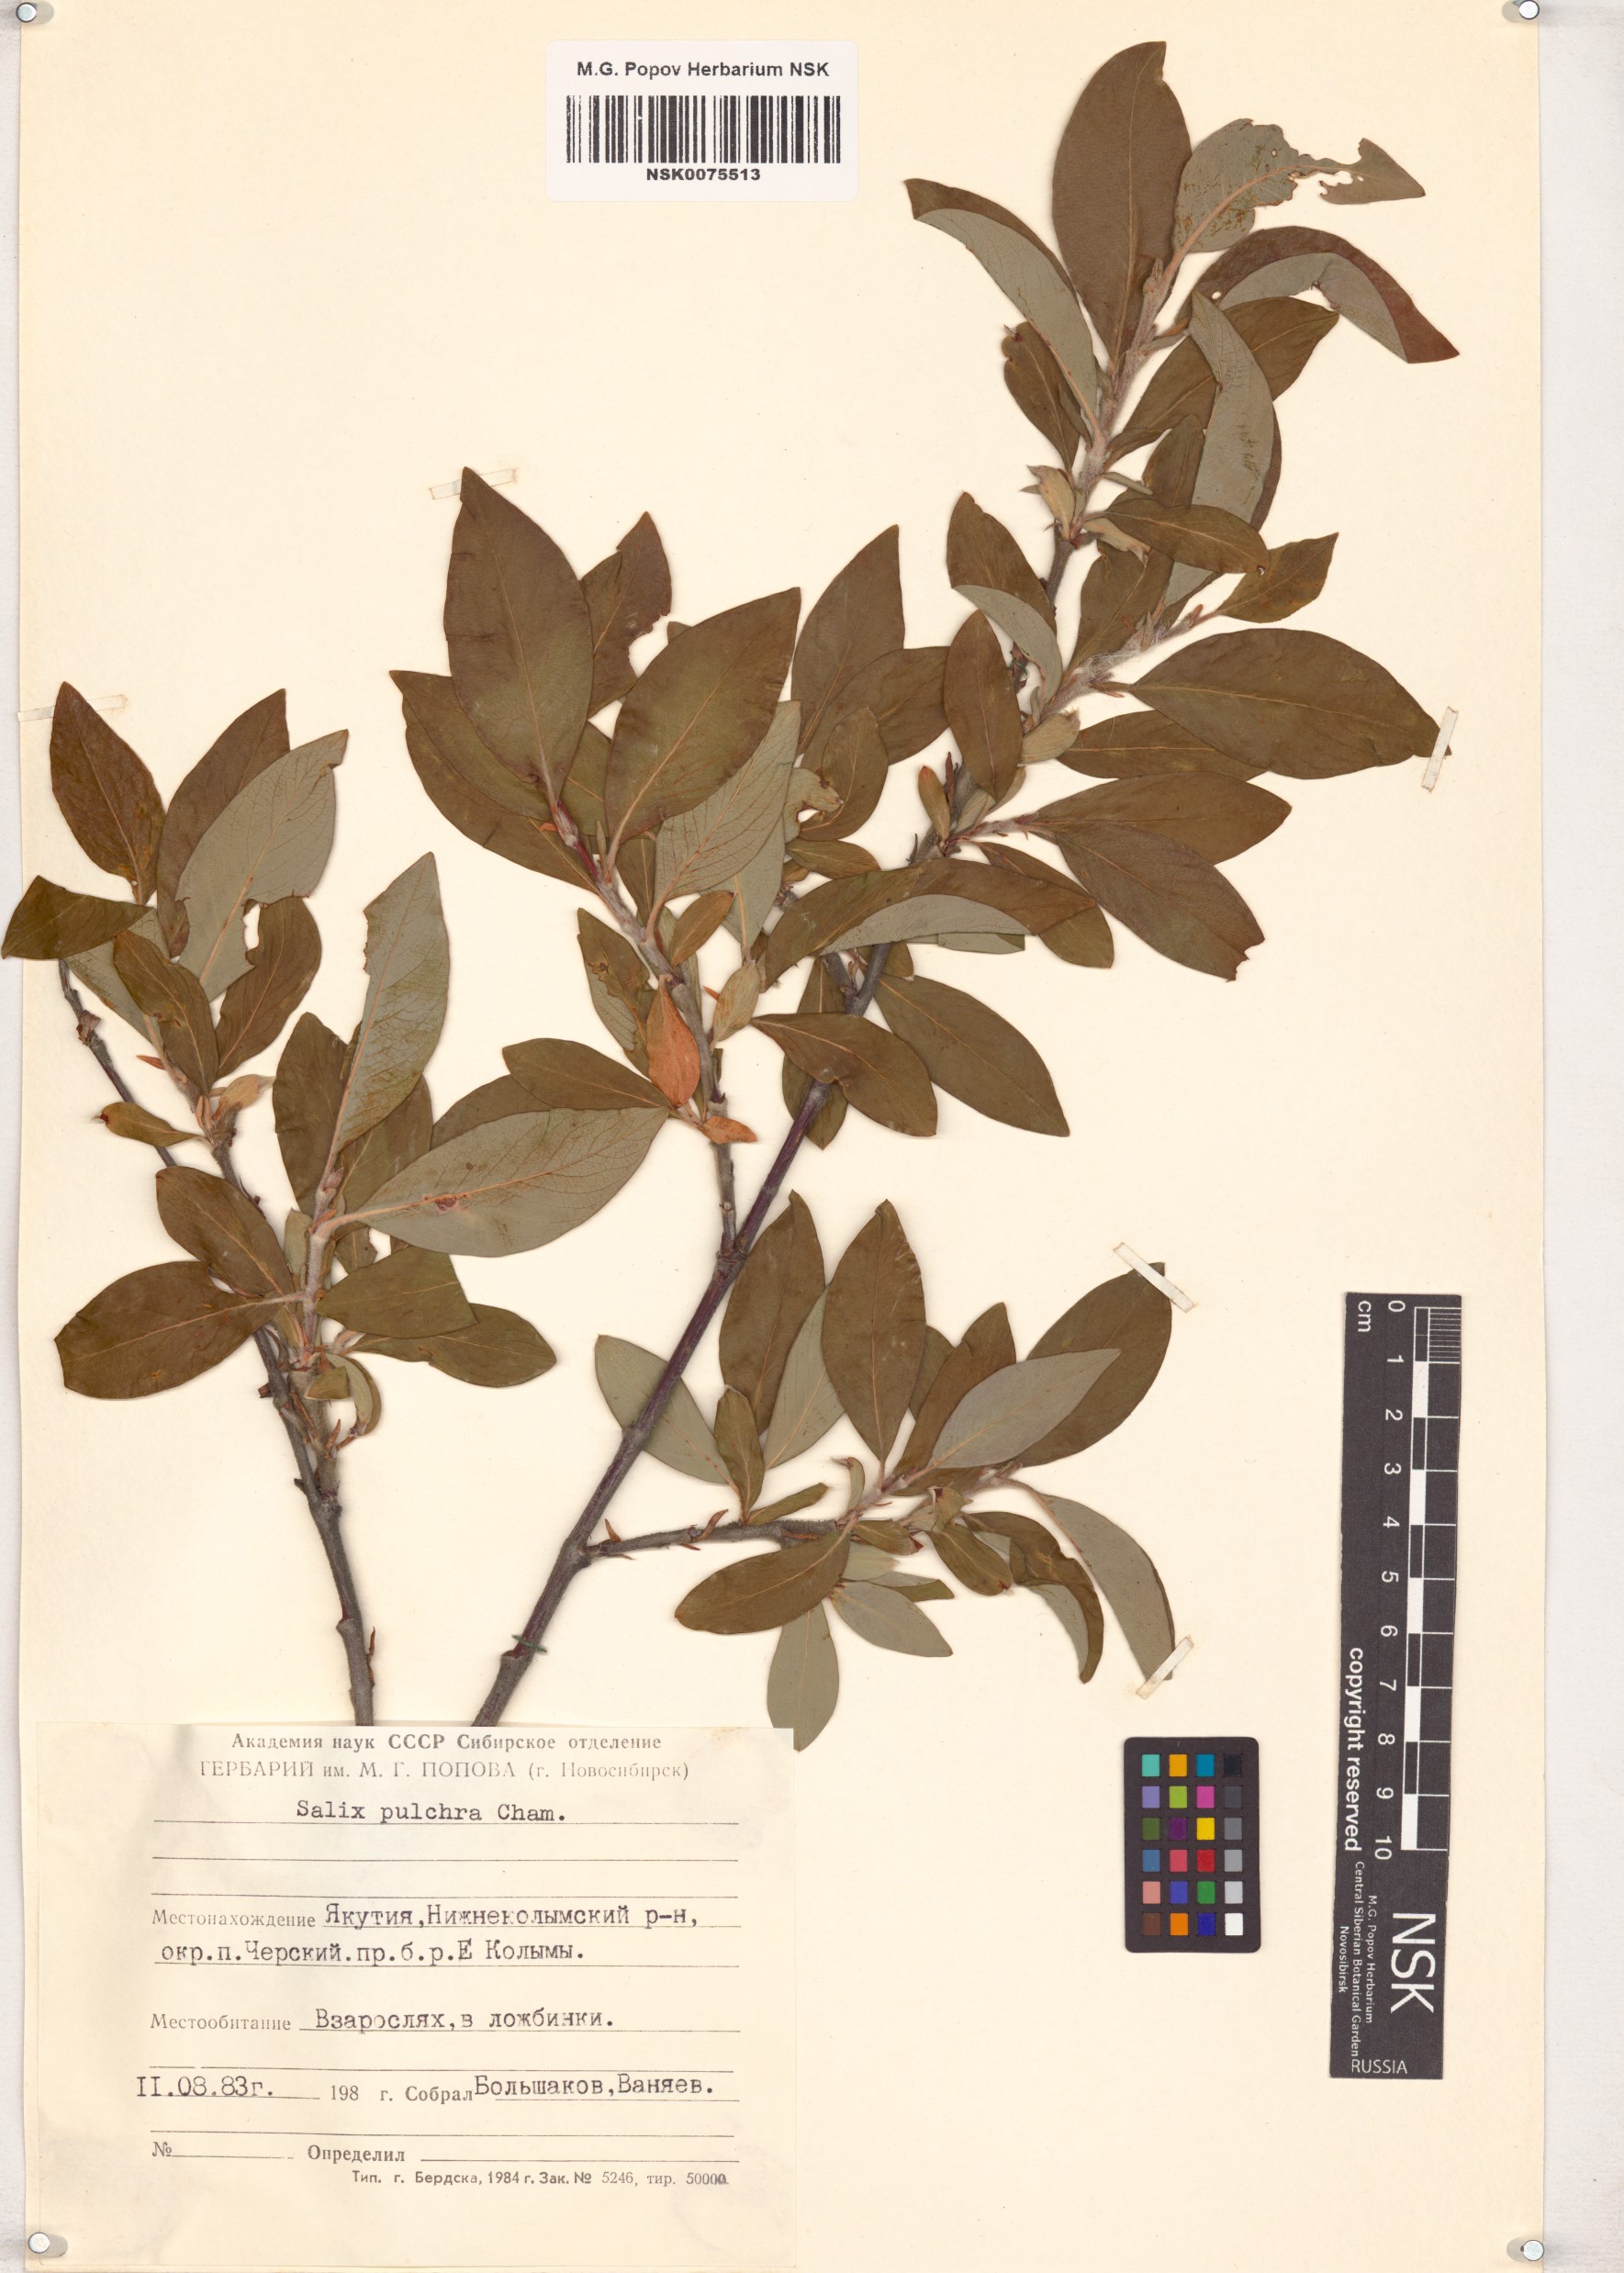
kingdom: Plantae
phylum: Tracheophyta
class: Magnoliopsida
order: Malpighiales
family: Salicaceae
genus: Salix
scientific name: Salix pulchra
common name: Diamond-leaved willow
